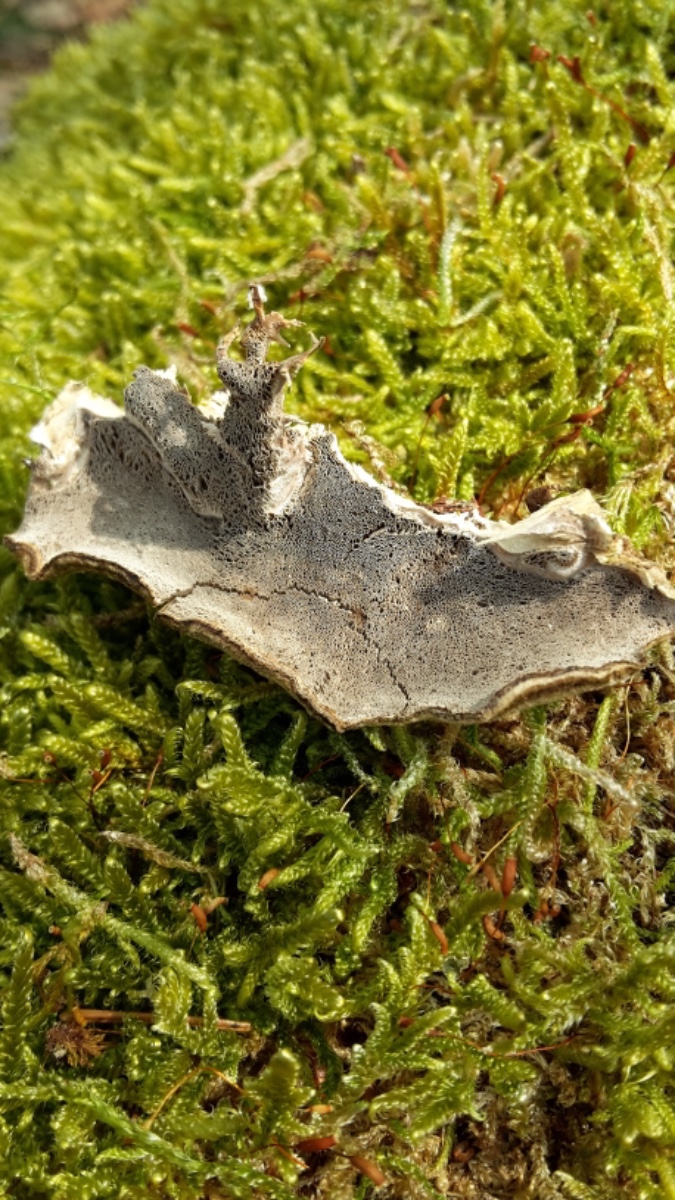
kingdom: Fungi
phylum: Basidiomycota
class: Agaricomycetes
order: Polyporales
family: Phanerochaetaceae
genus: Bjerkandera
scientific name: Bjerkandera adusta
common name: sveden sodporesvamp
